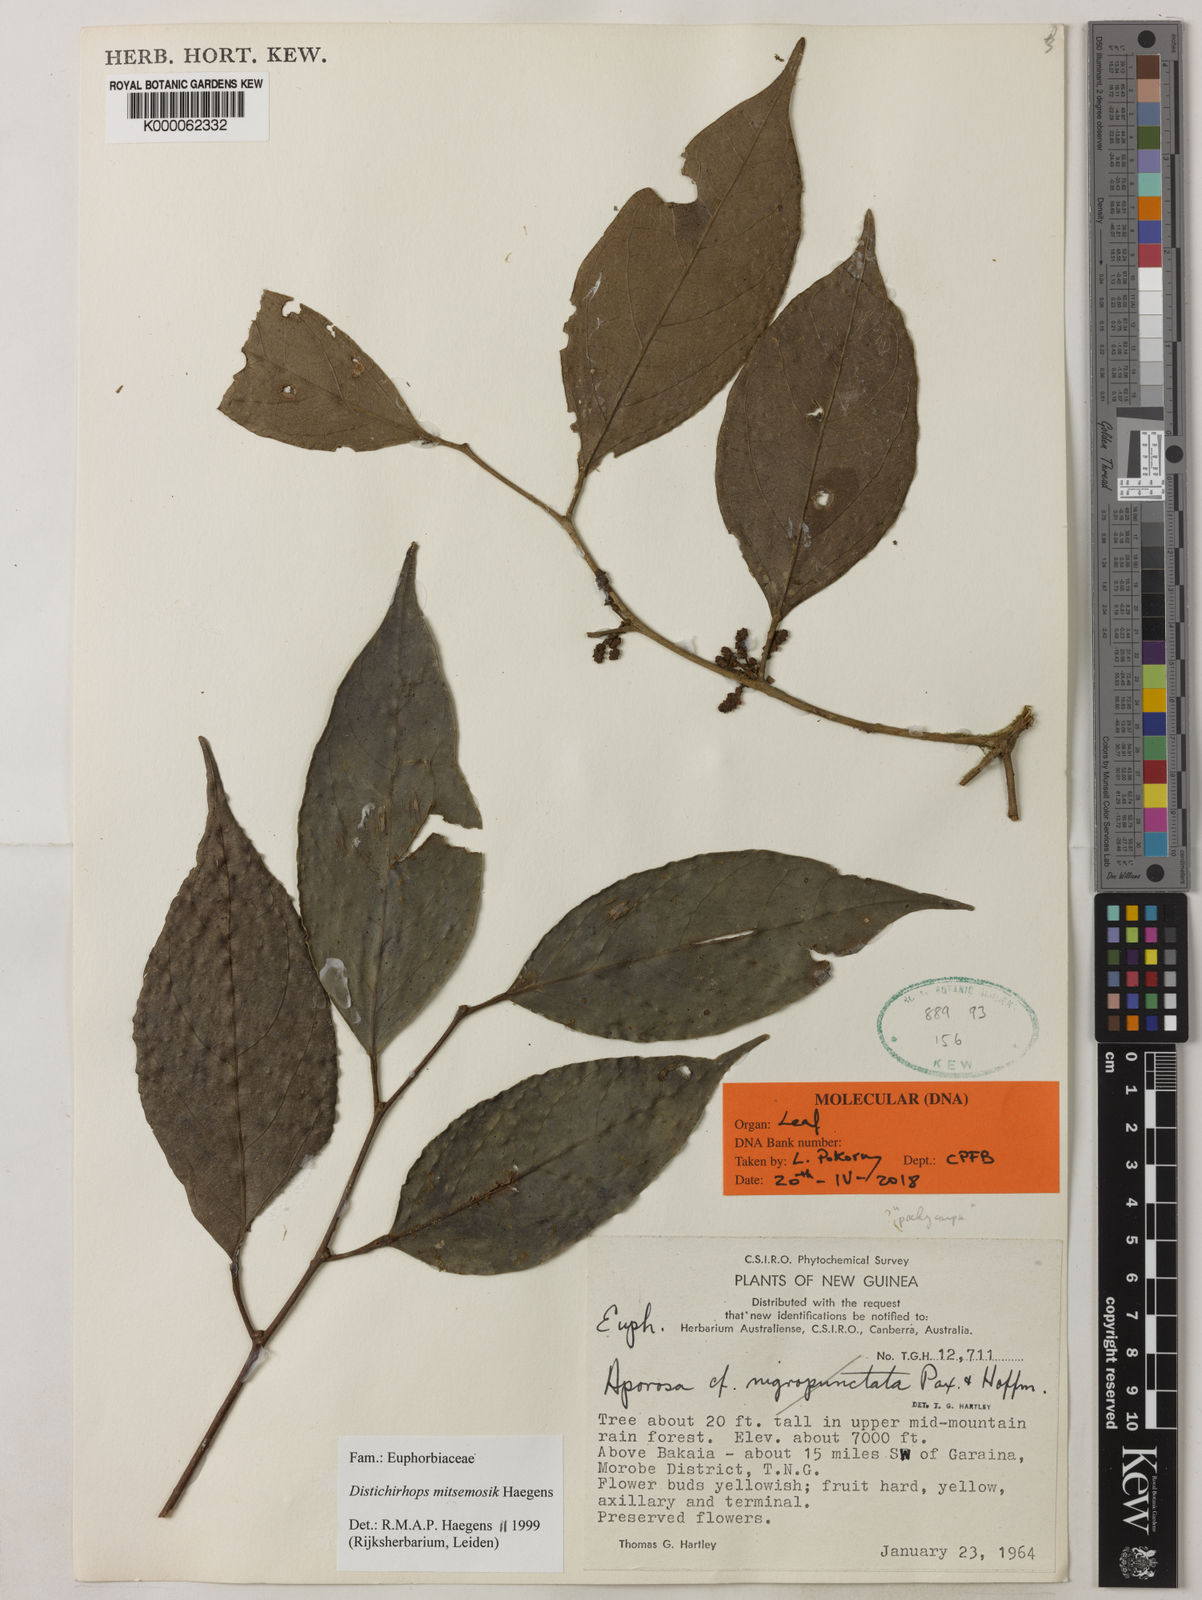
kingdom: Plantae
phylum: Tracheophyta
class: Magnoliopsida
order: Malpighiales
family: Phyllanthaceae
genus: Distichirhops
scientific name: Distichirhops mitsemosik
